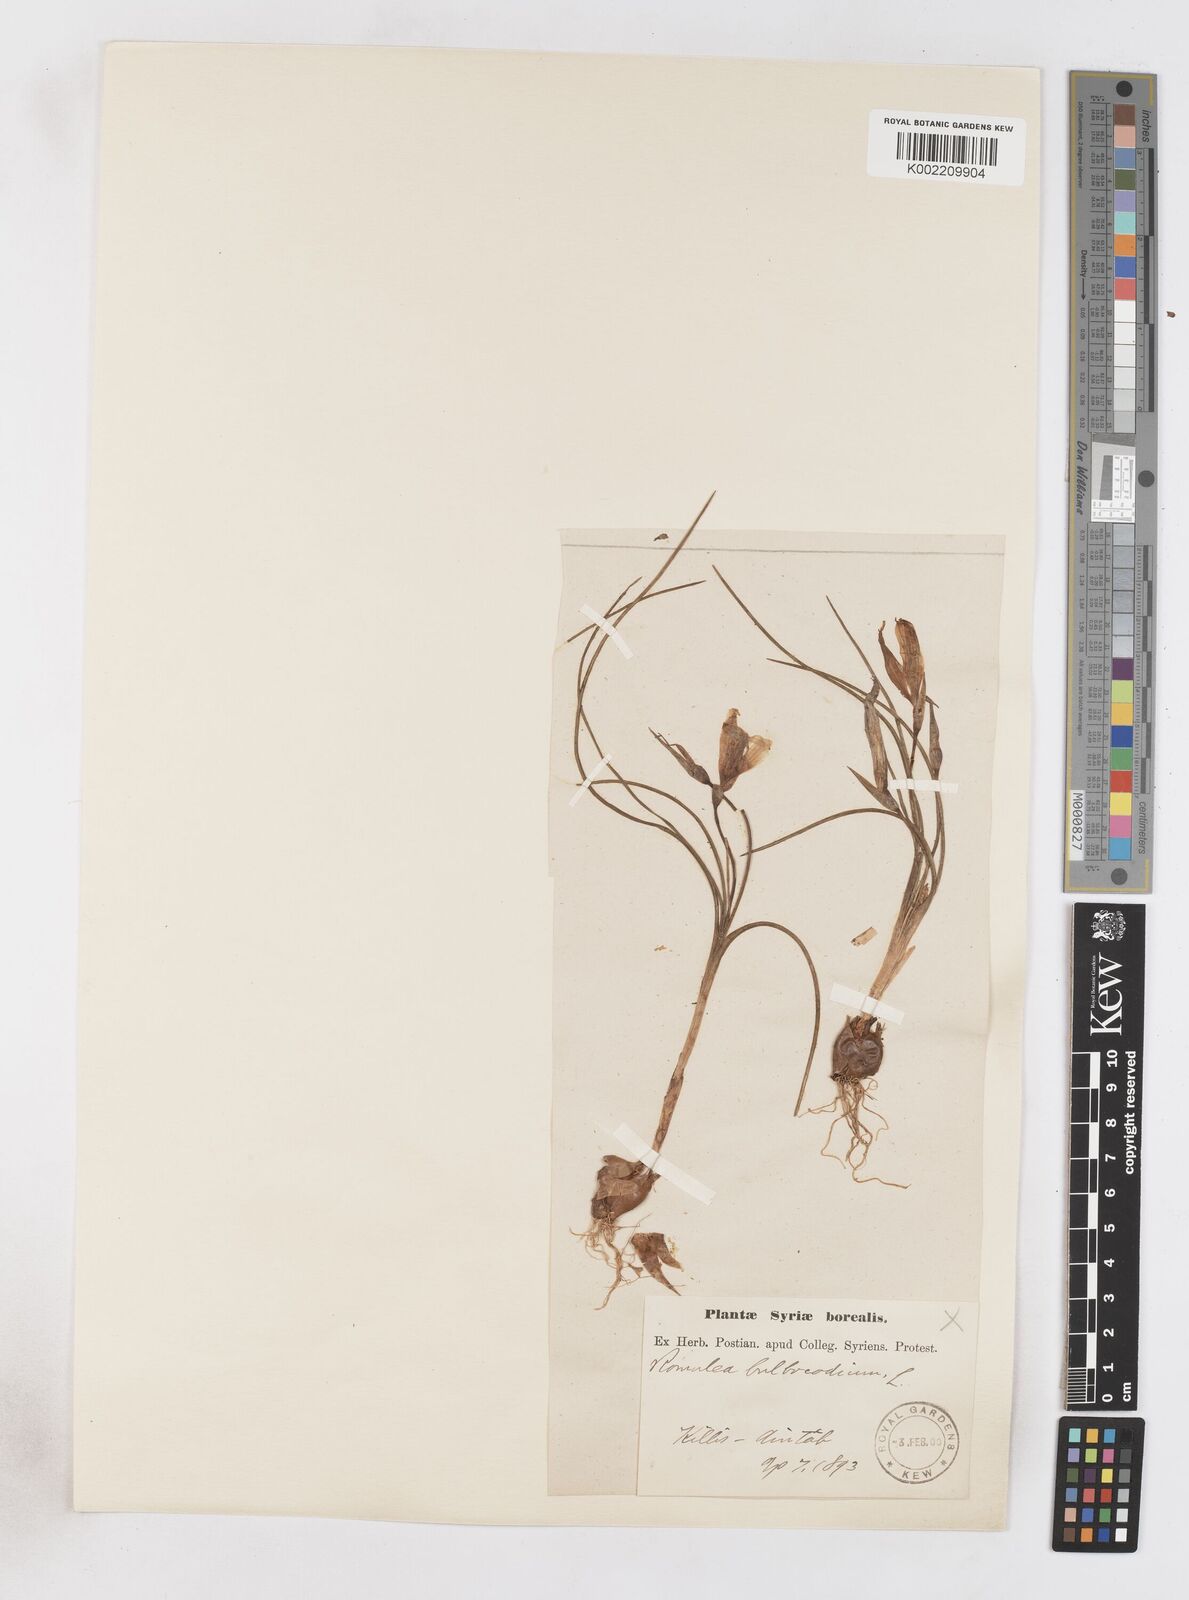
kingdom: Plantae
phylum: Tracheophyta
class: Liliopsida
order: Asparagales
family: Iridaceae
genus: Romulea
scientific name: Romulea bulbocodium
